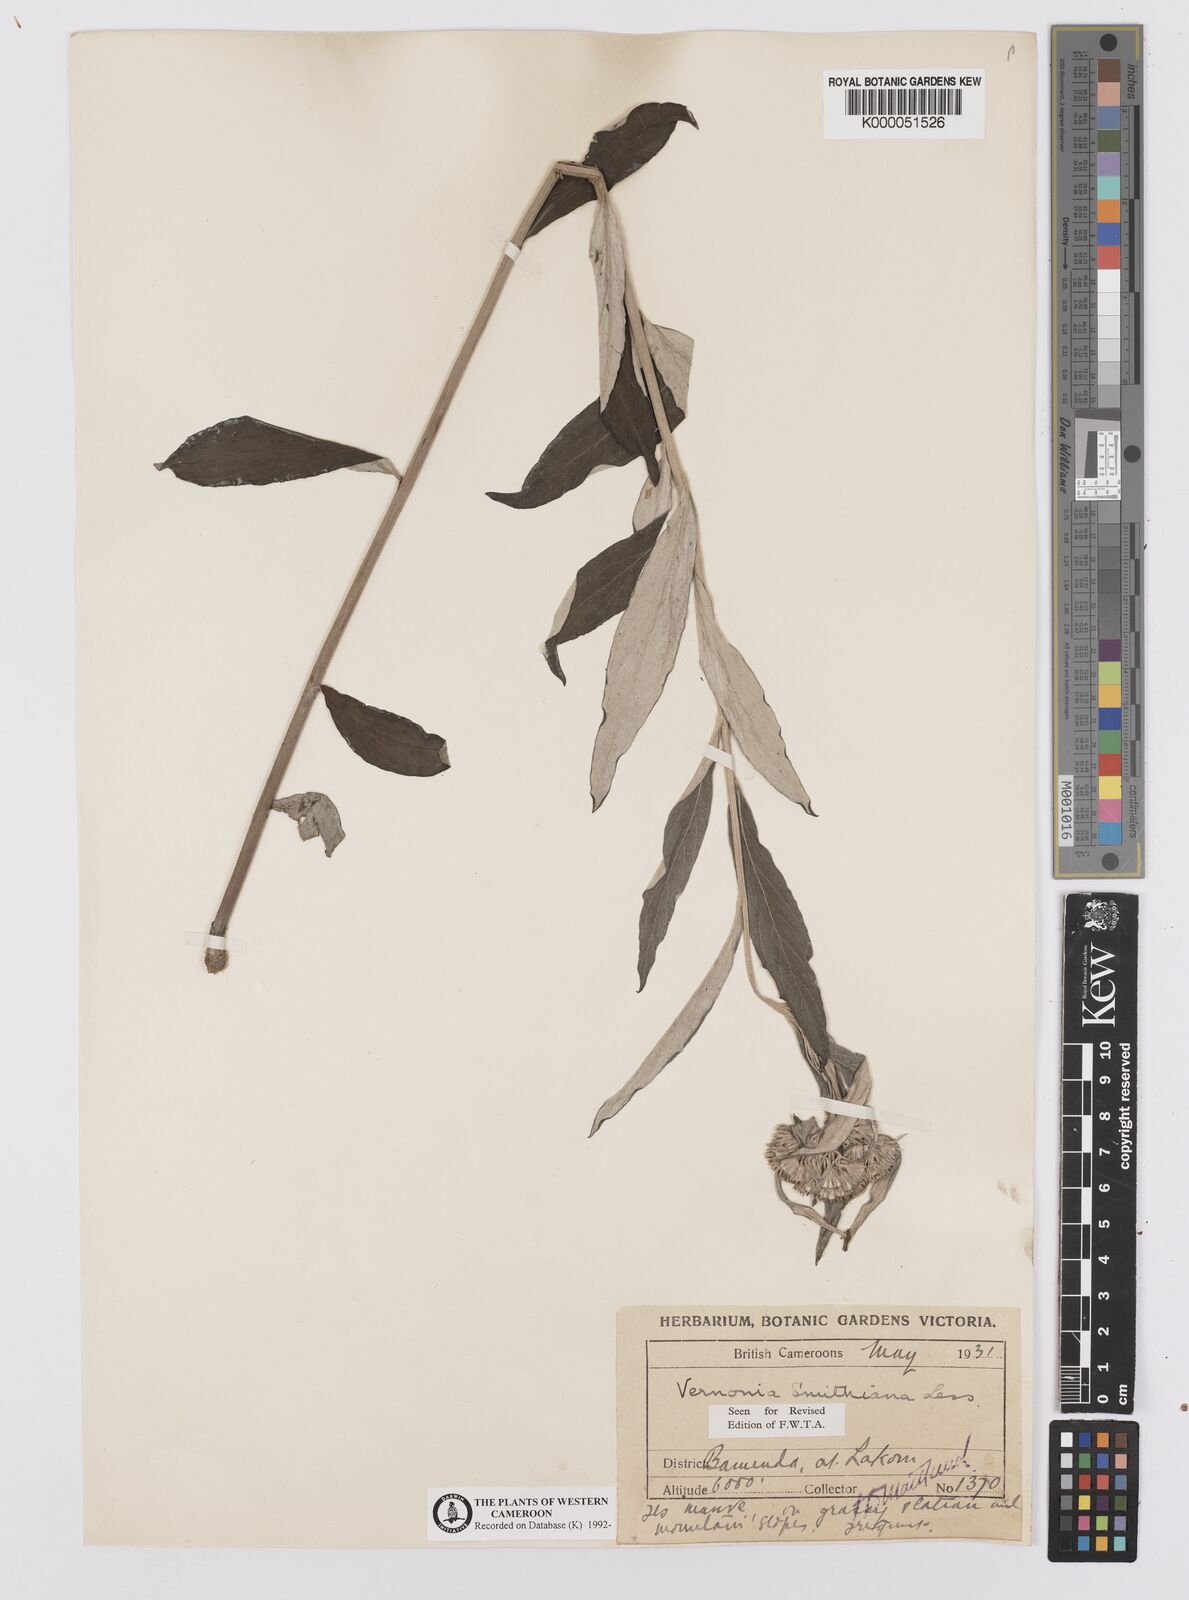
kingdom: Plantae
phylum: Tracheophyta
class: Magnoliopsida
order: Asterales
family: Asteraceae
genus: Hilliardiella
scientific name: Hilliardiella smithiana
